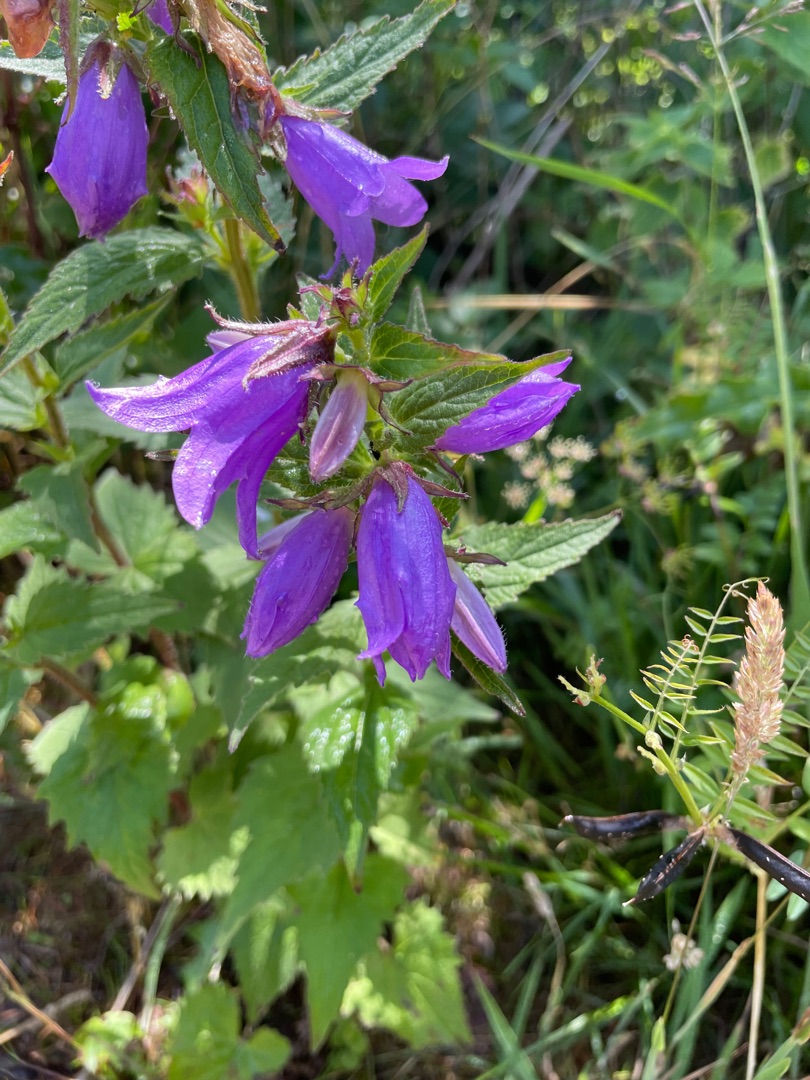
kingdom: Plantae
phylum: Tracheophyta
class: Magnoliopsida
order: Asterales
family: Campanulaceae
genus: Campanula
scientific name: Campanula trachelium
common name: Nælde-klokke
